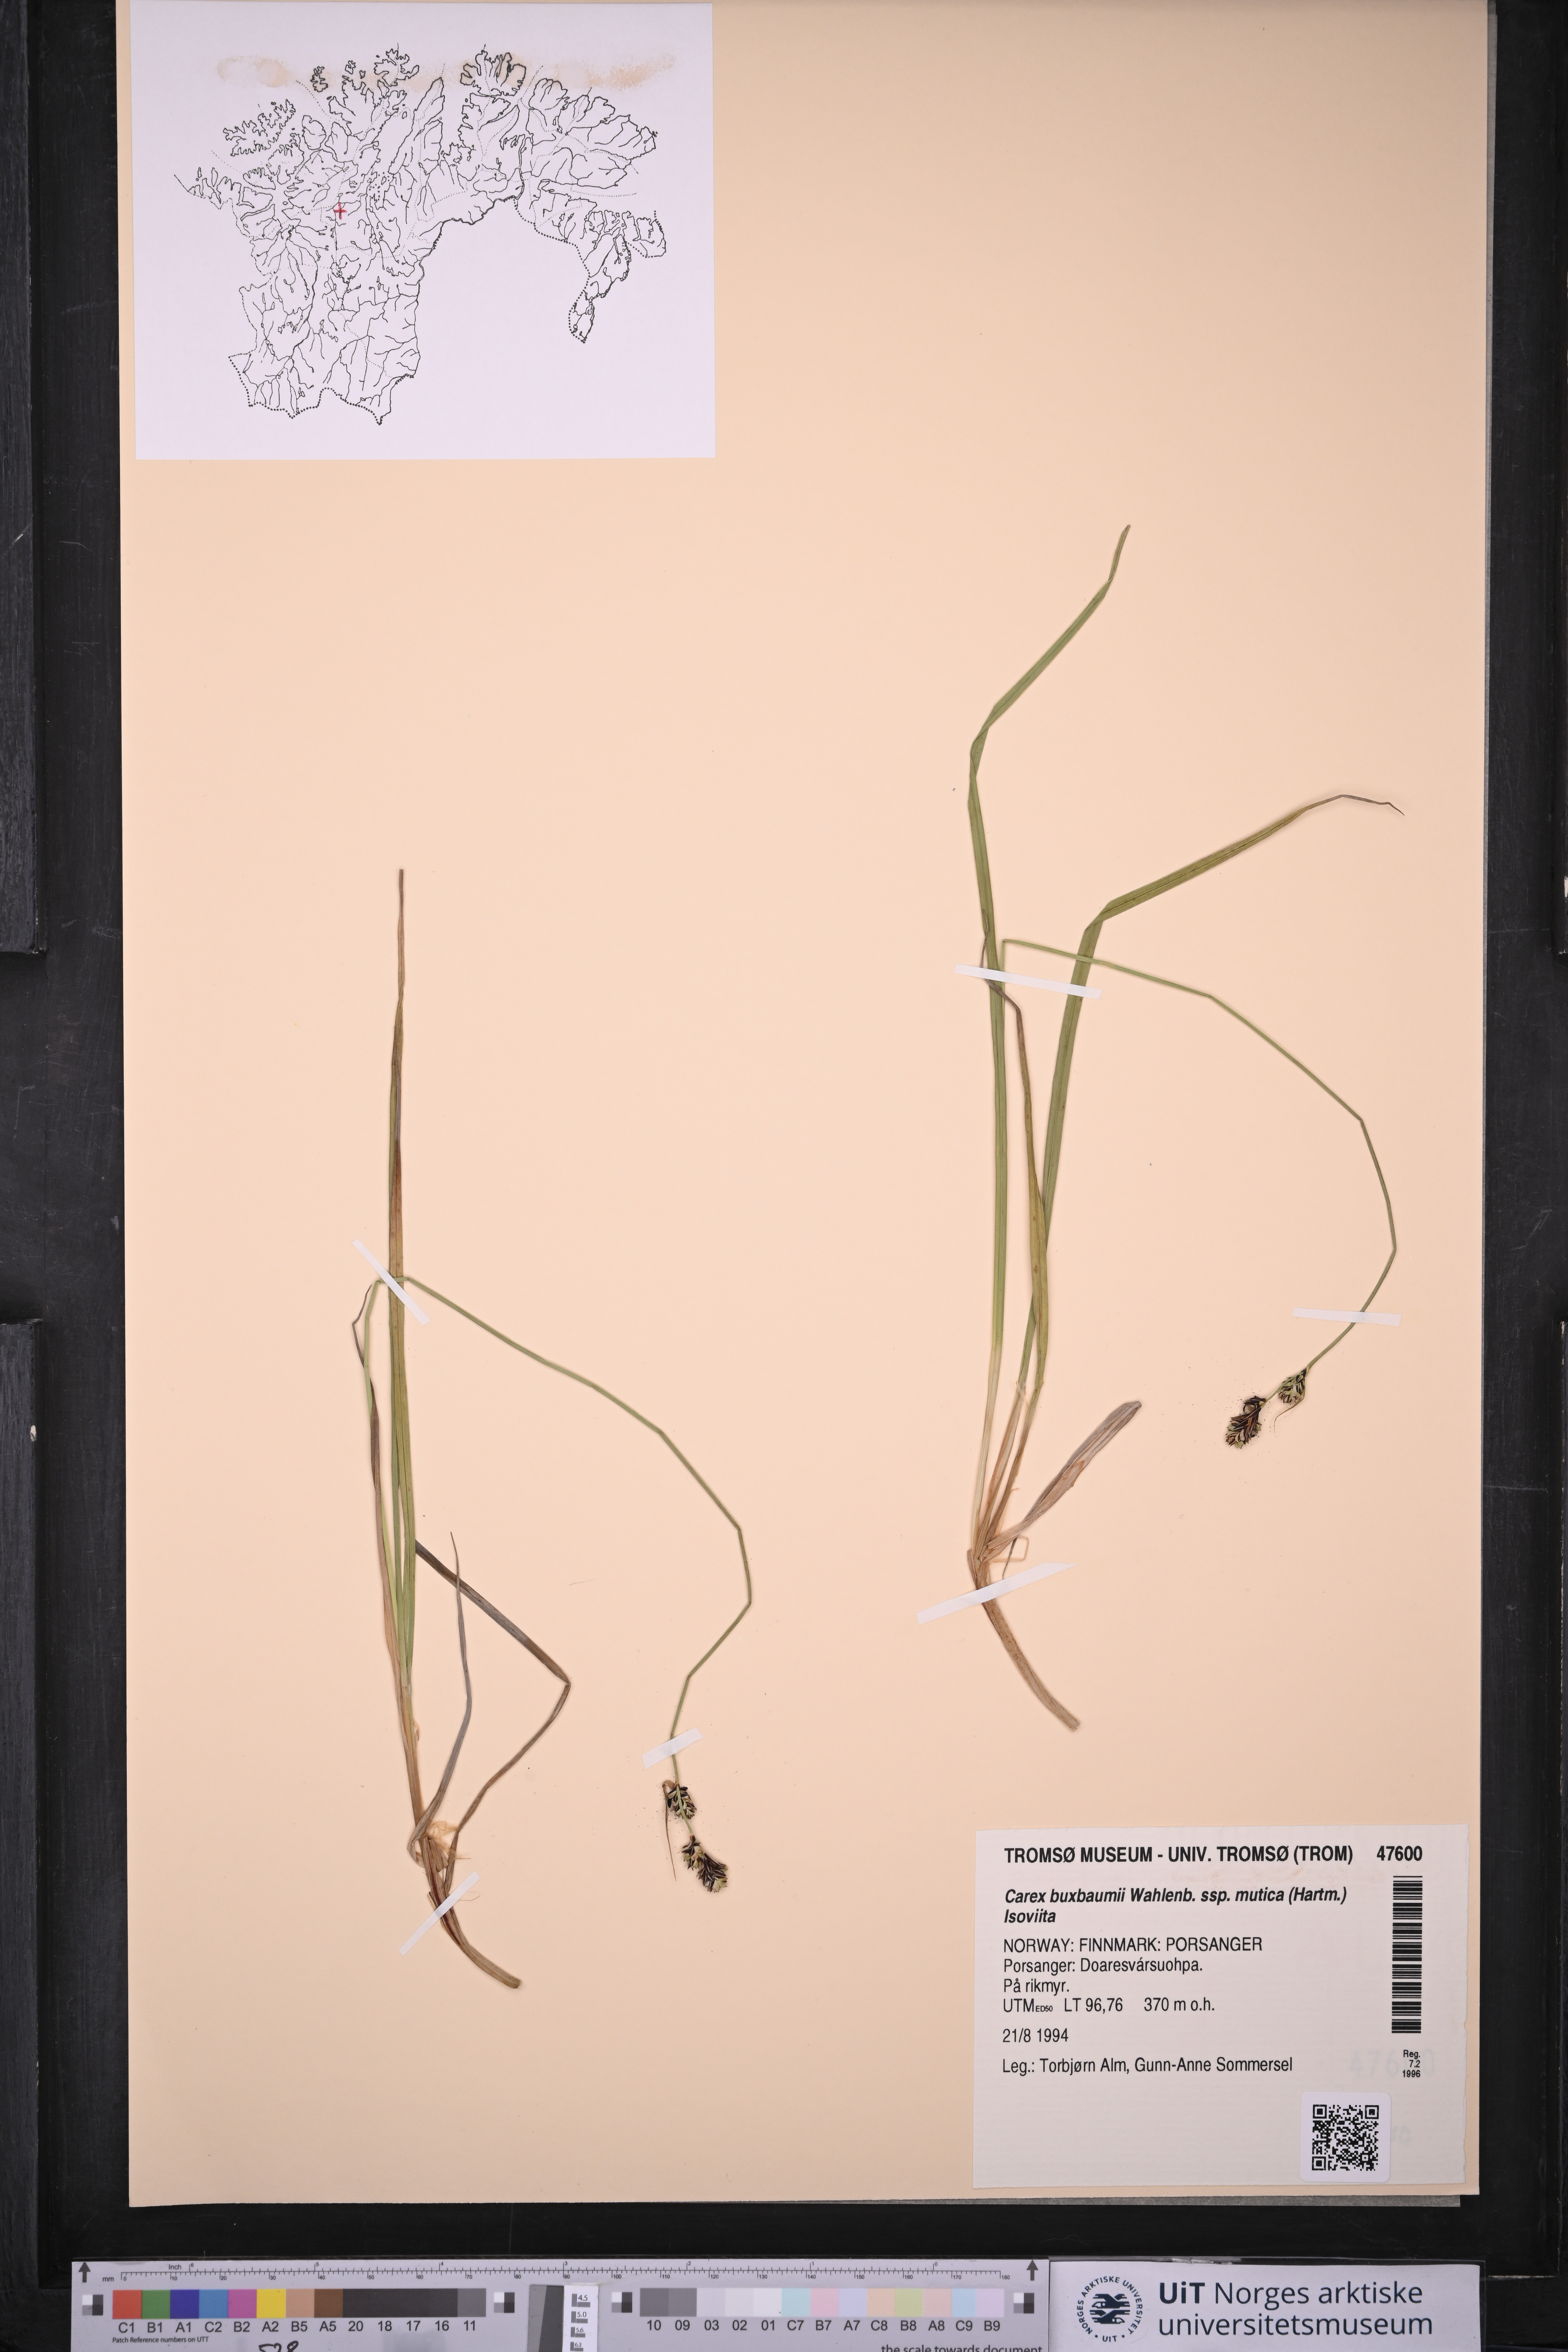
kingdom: Plantae
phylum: Tracheophyta
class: Liliopsida
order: Poales
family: Cyperaceae
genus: Carex
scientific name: Carex adelostoma
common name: Circumpolar sedge
